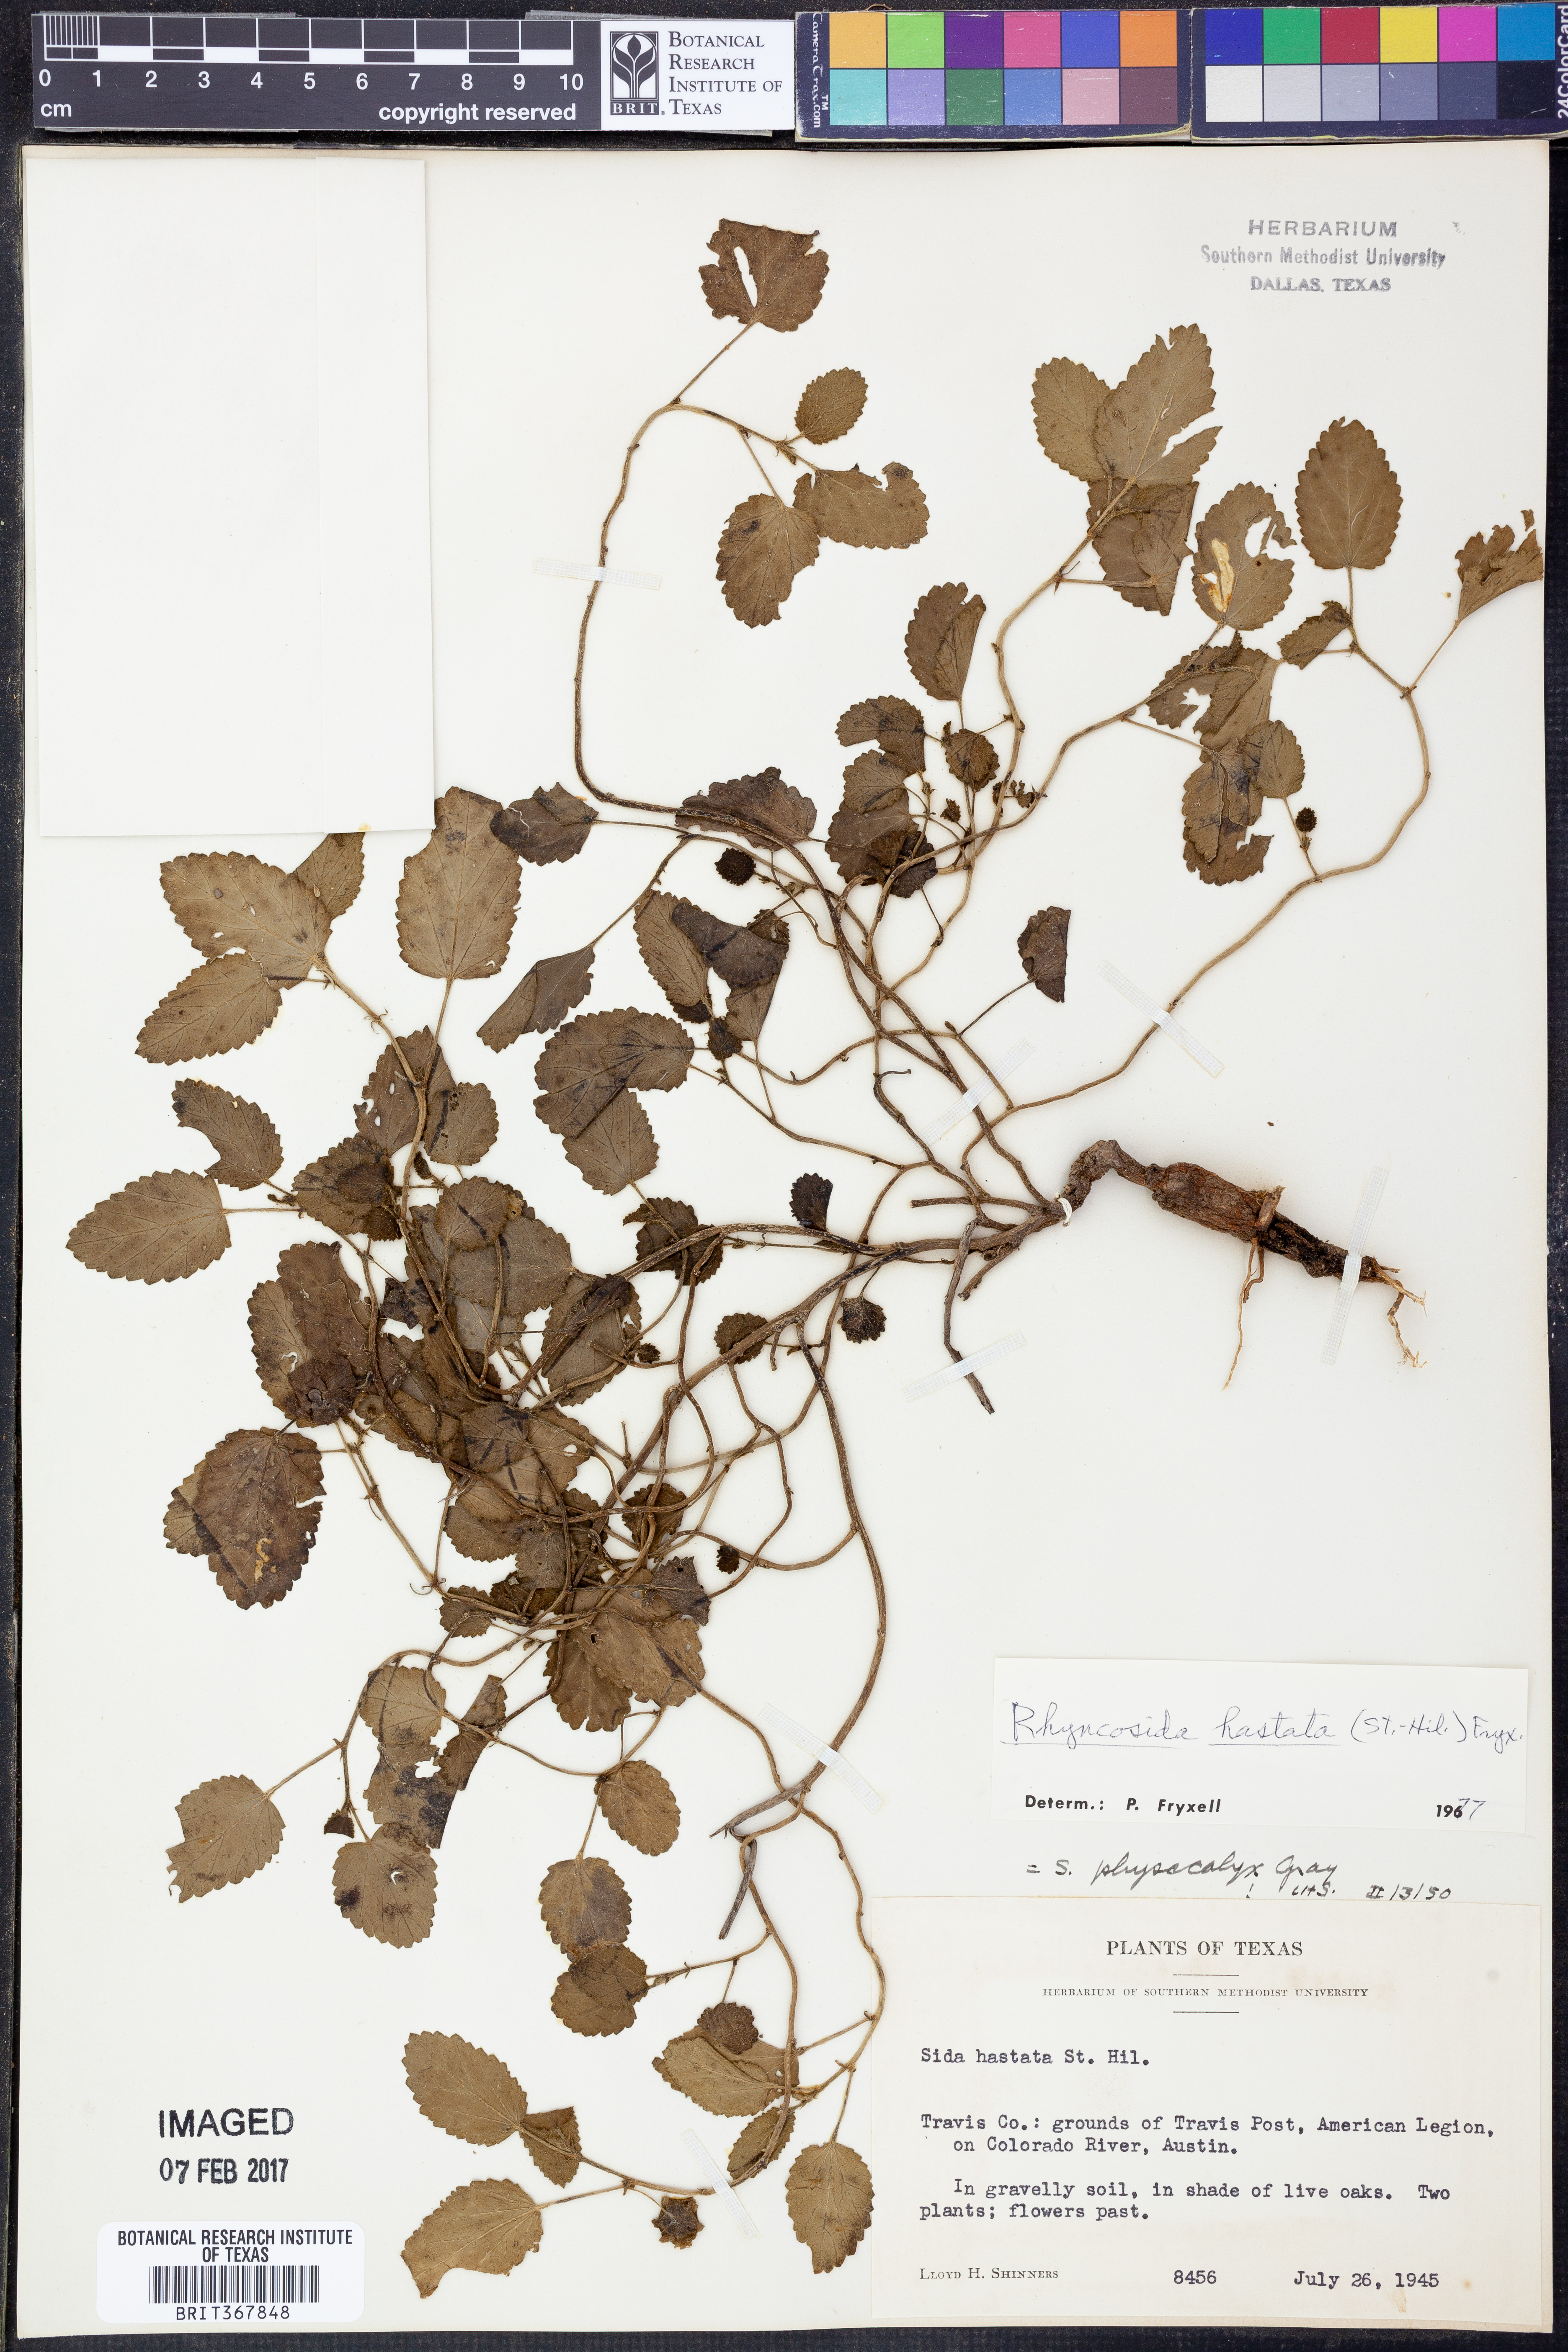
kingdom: Plantae
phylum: Tracheophyta
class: Magnoliopsida
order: Malvales
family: Malvaceae
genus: Rhynchosida
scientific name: Rhynchosida
